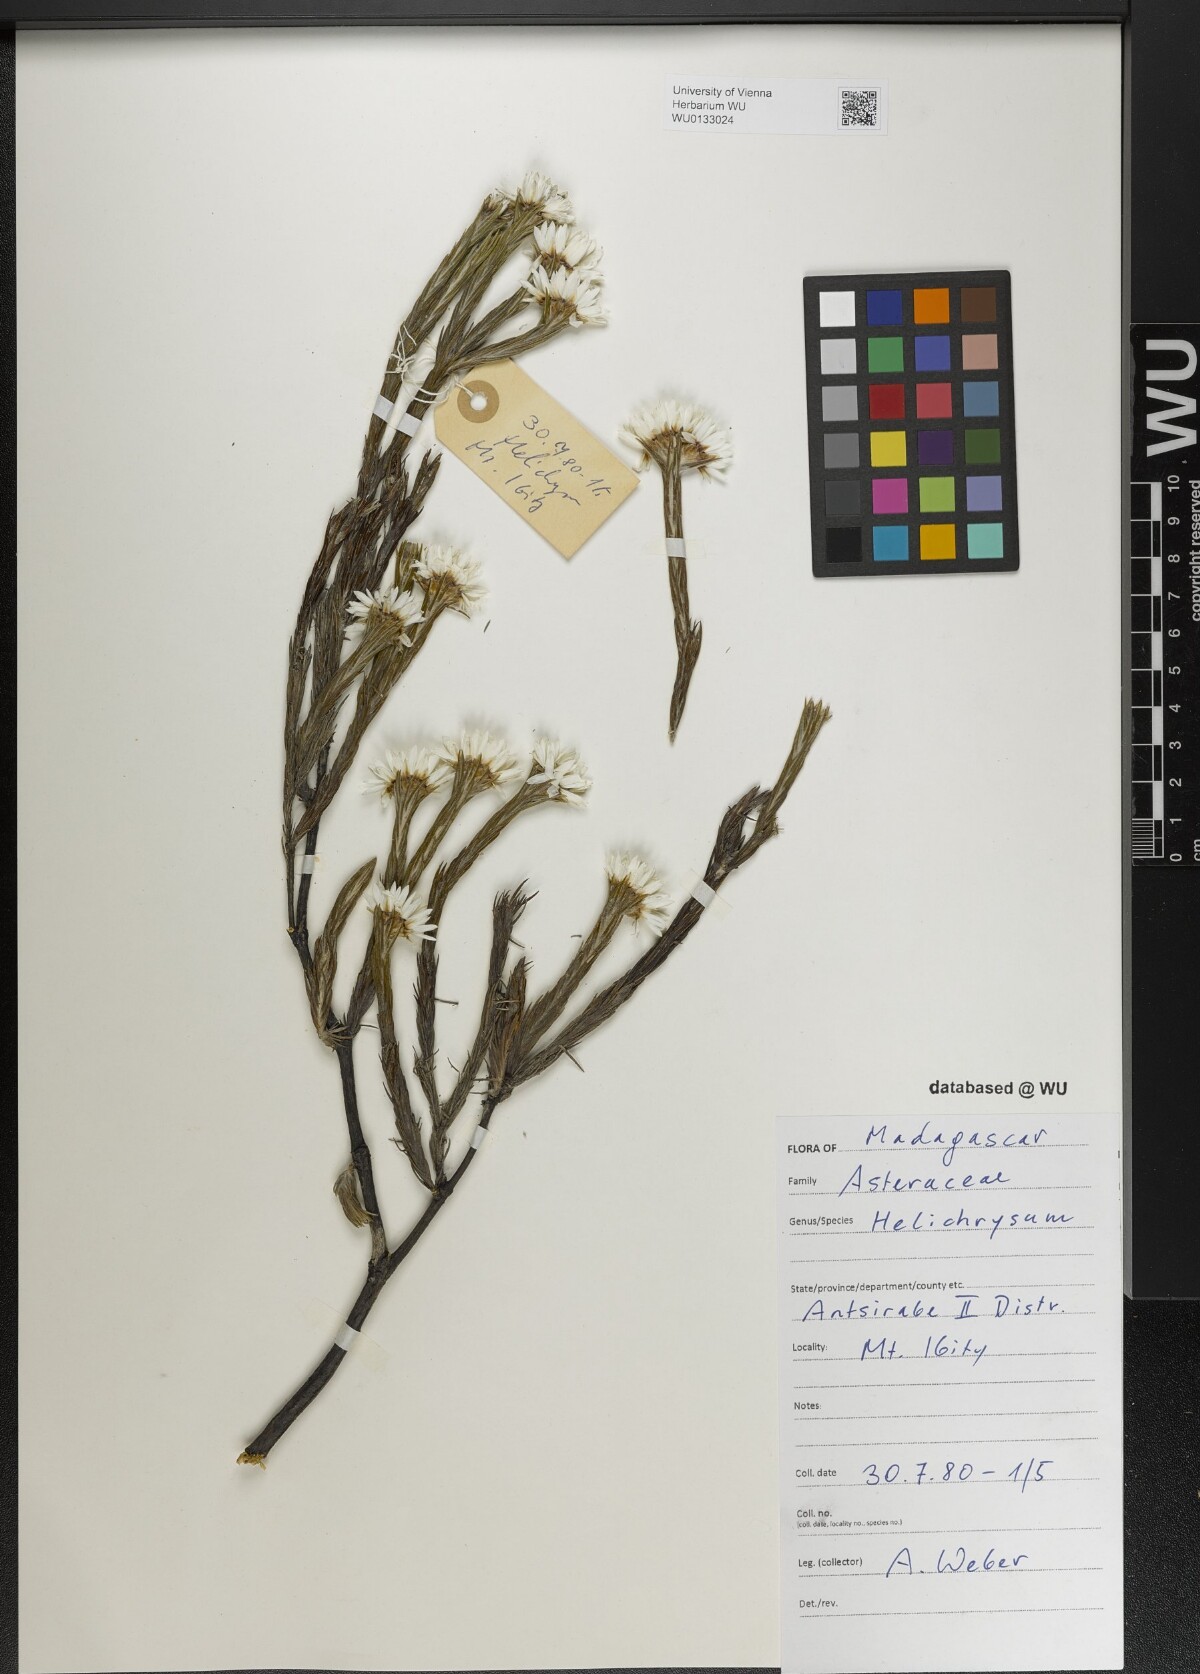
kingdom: Plantae
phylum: Tracheophyta
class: Magnoliopsida
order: Asterales
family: Asteraceae
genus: Helichrysum
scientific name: Helichrysum
